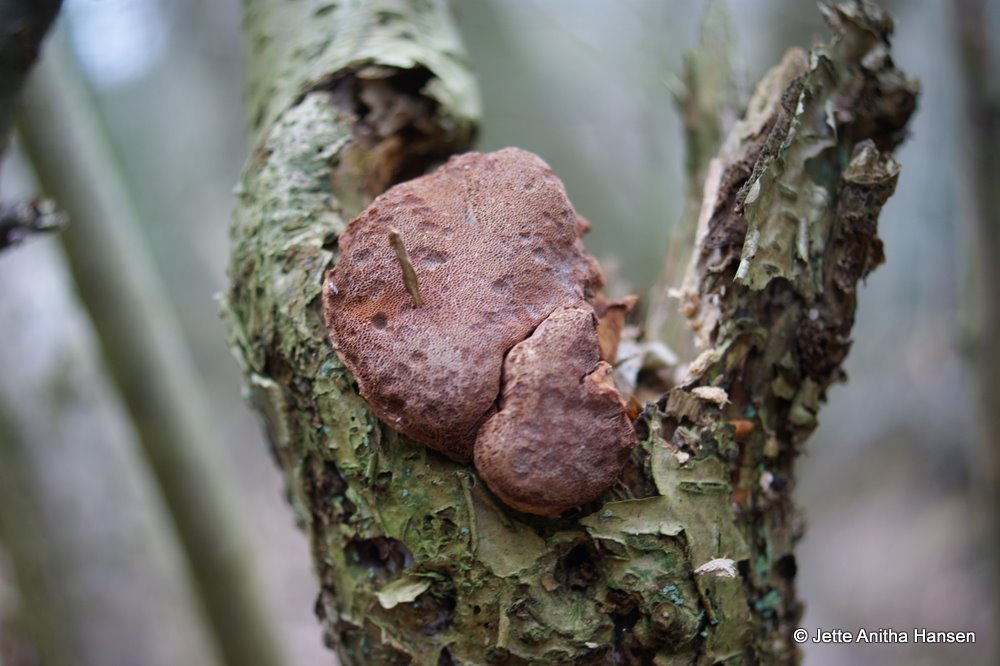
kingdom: Fungi
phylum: Basidiomycota
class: Agaricomycetes
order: Polyporales
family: Phanerochaetaceae
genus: Hapalopilus
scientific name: Hapalopilus rutilans
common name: rødlig okkerporesvamp
